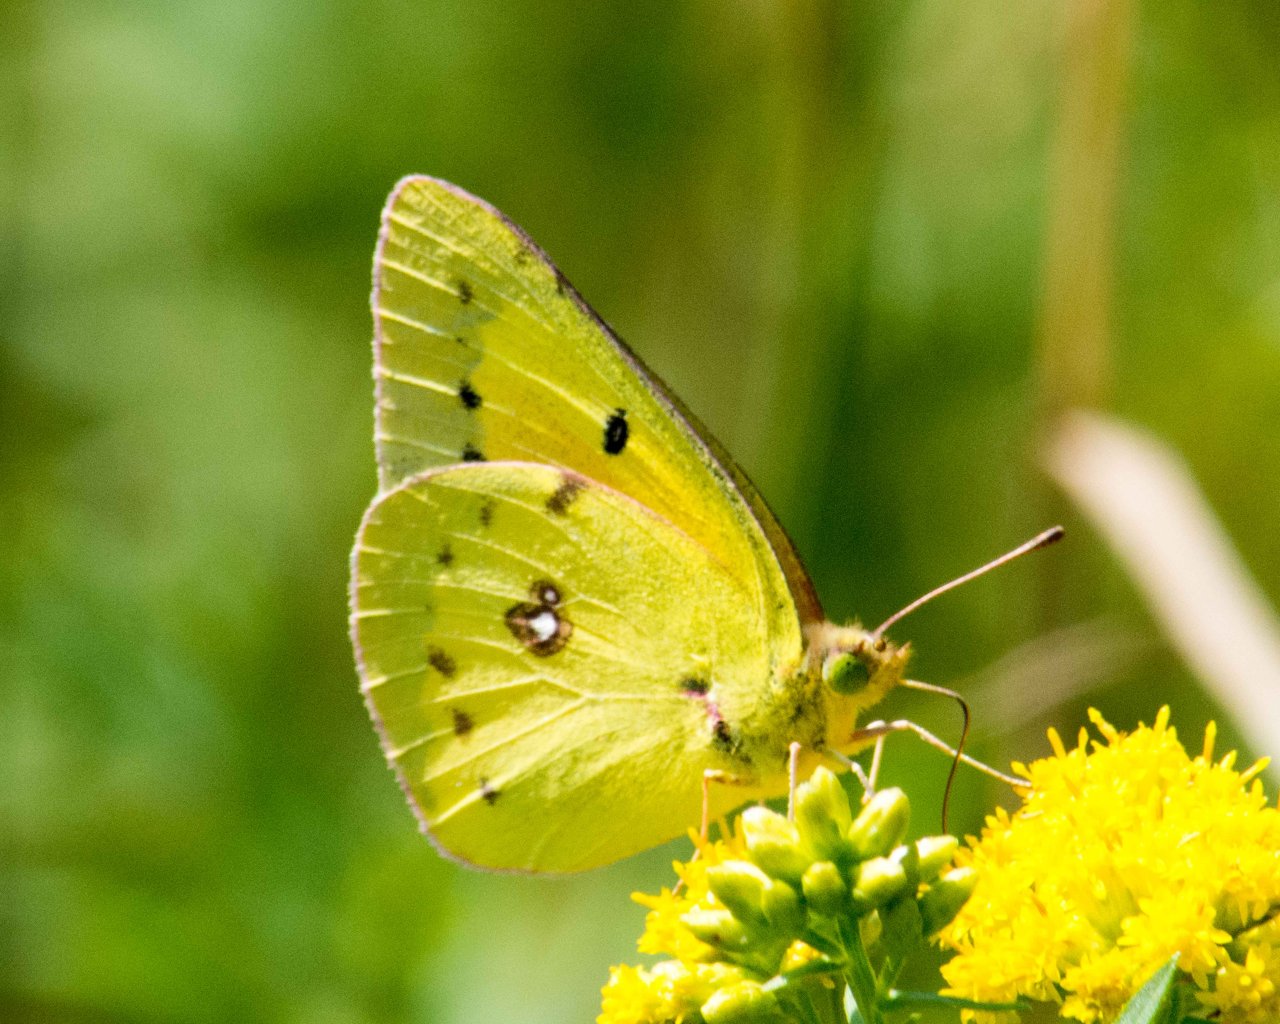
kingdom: Animalia
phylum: Arthropoda
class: Insecta
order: Lepidoptera
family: Pieridae
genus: Colias
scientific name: Colias eurytheme
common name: Orange Sulphur
